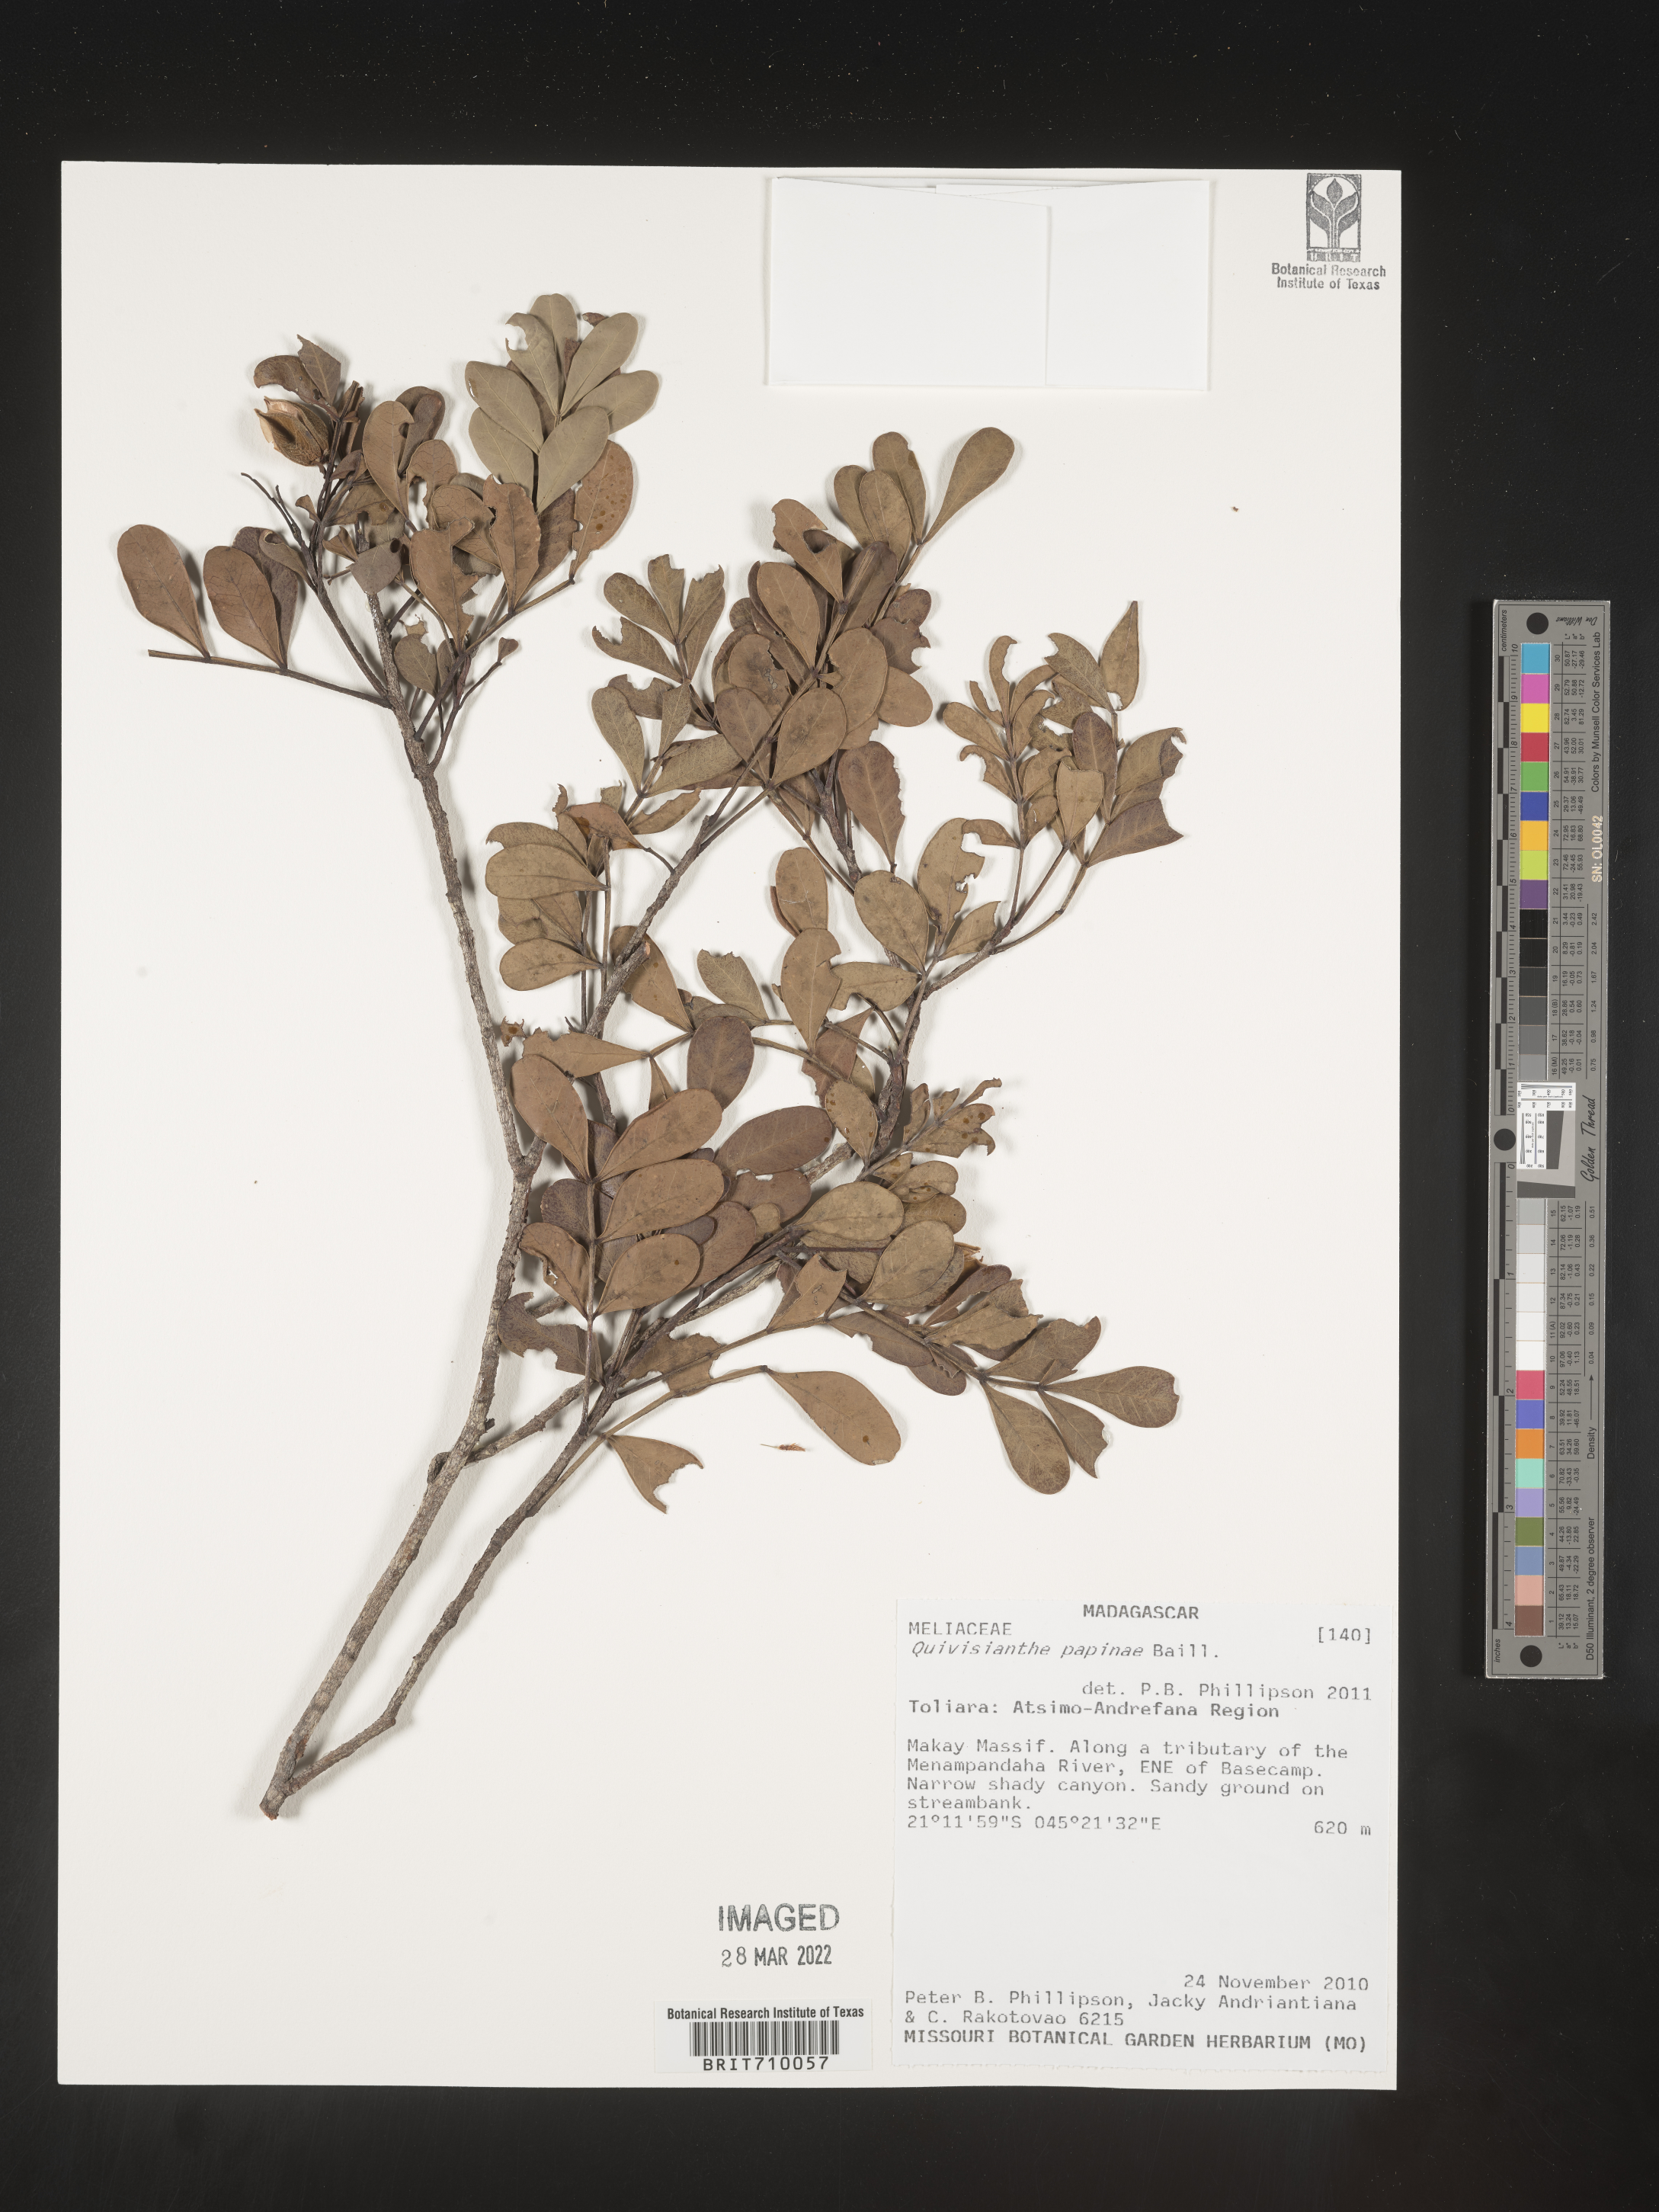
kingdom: Plantae
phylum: Tracheophyta
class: Magnoliopsida
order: Sapindales
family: Meliaceae
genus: Quivisianthe
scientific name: Quivisianthe papinae
